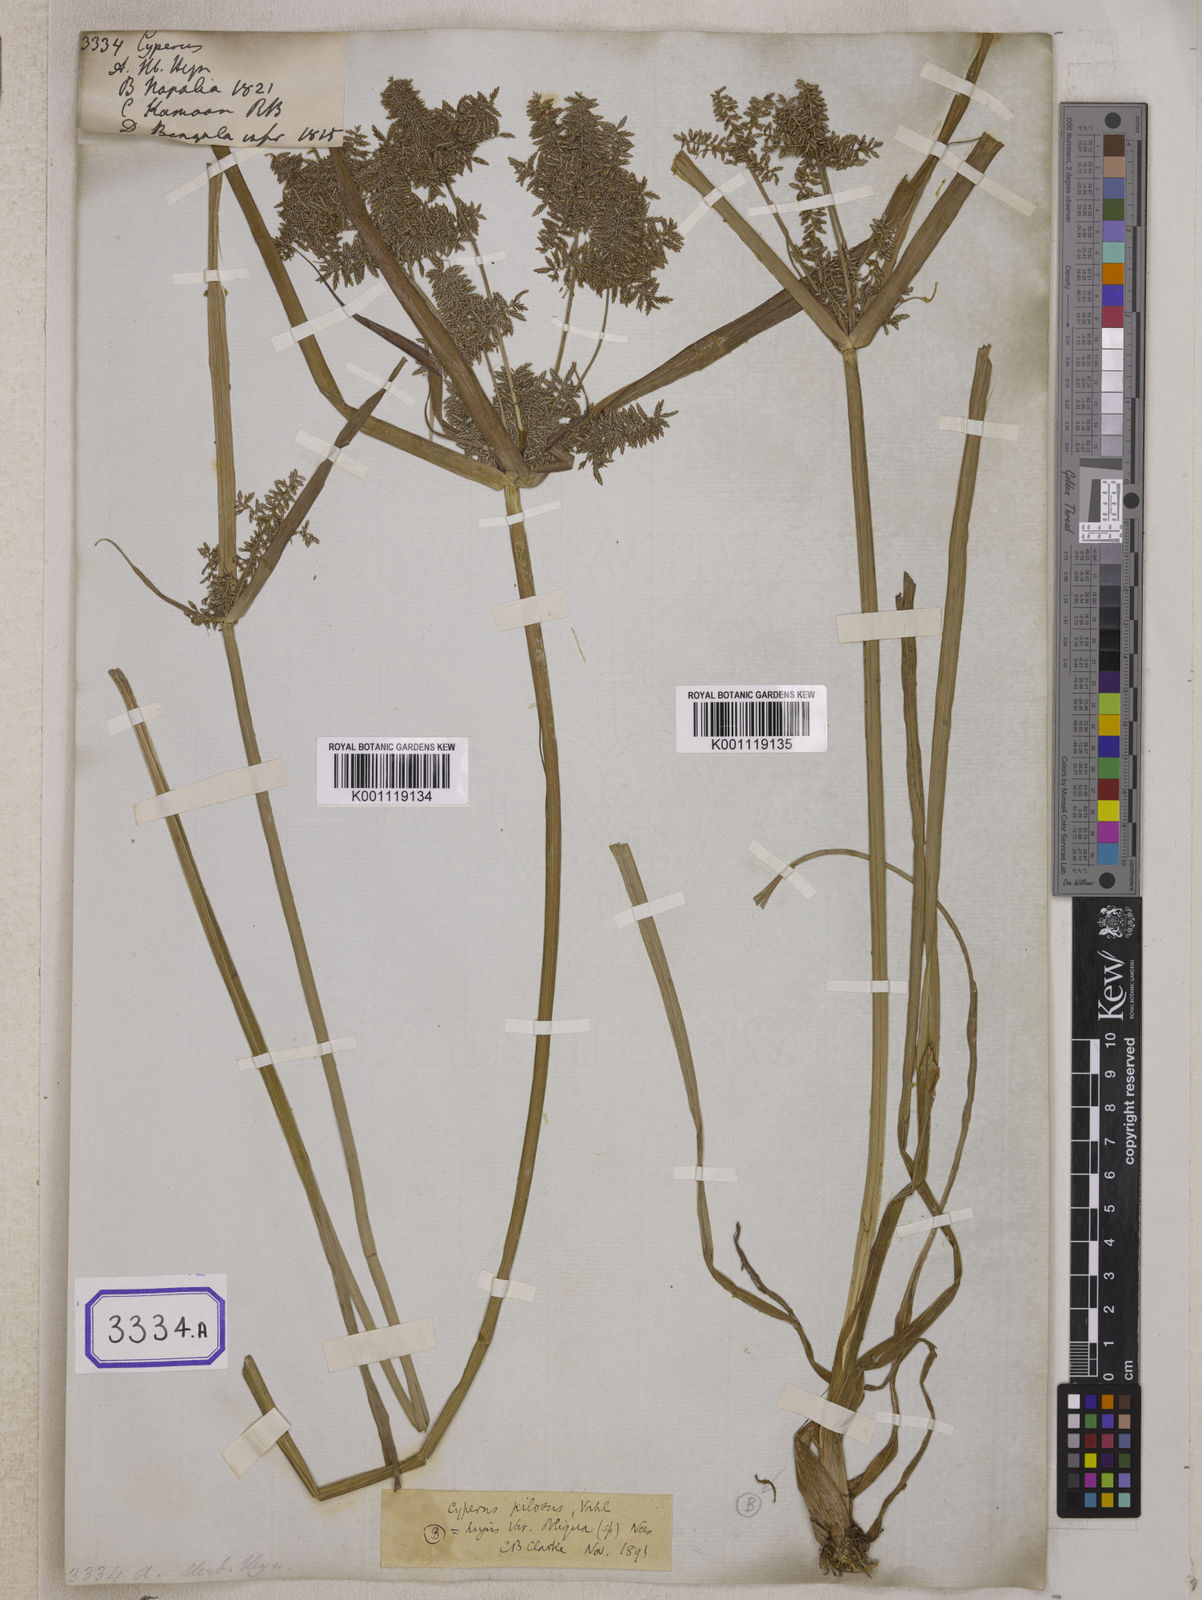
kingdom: Plantae
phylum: Tracheophyta
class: Liliopsida
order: Poales
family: Cyperaceae
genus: Cyperus
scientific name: Cyperus
